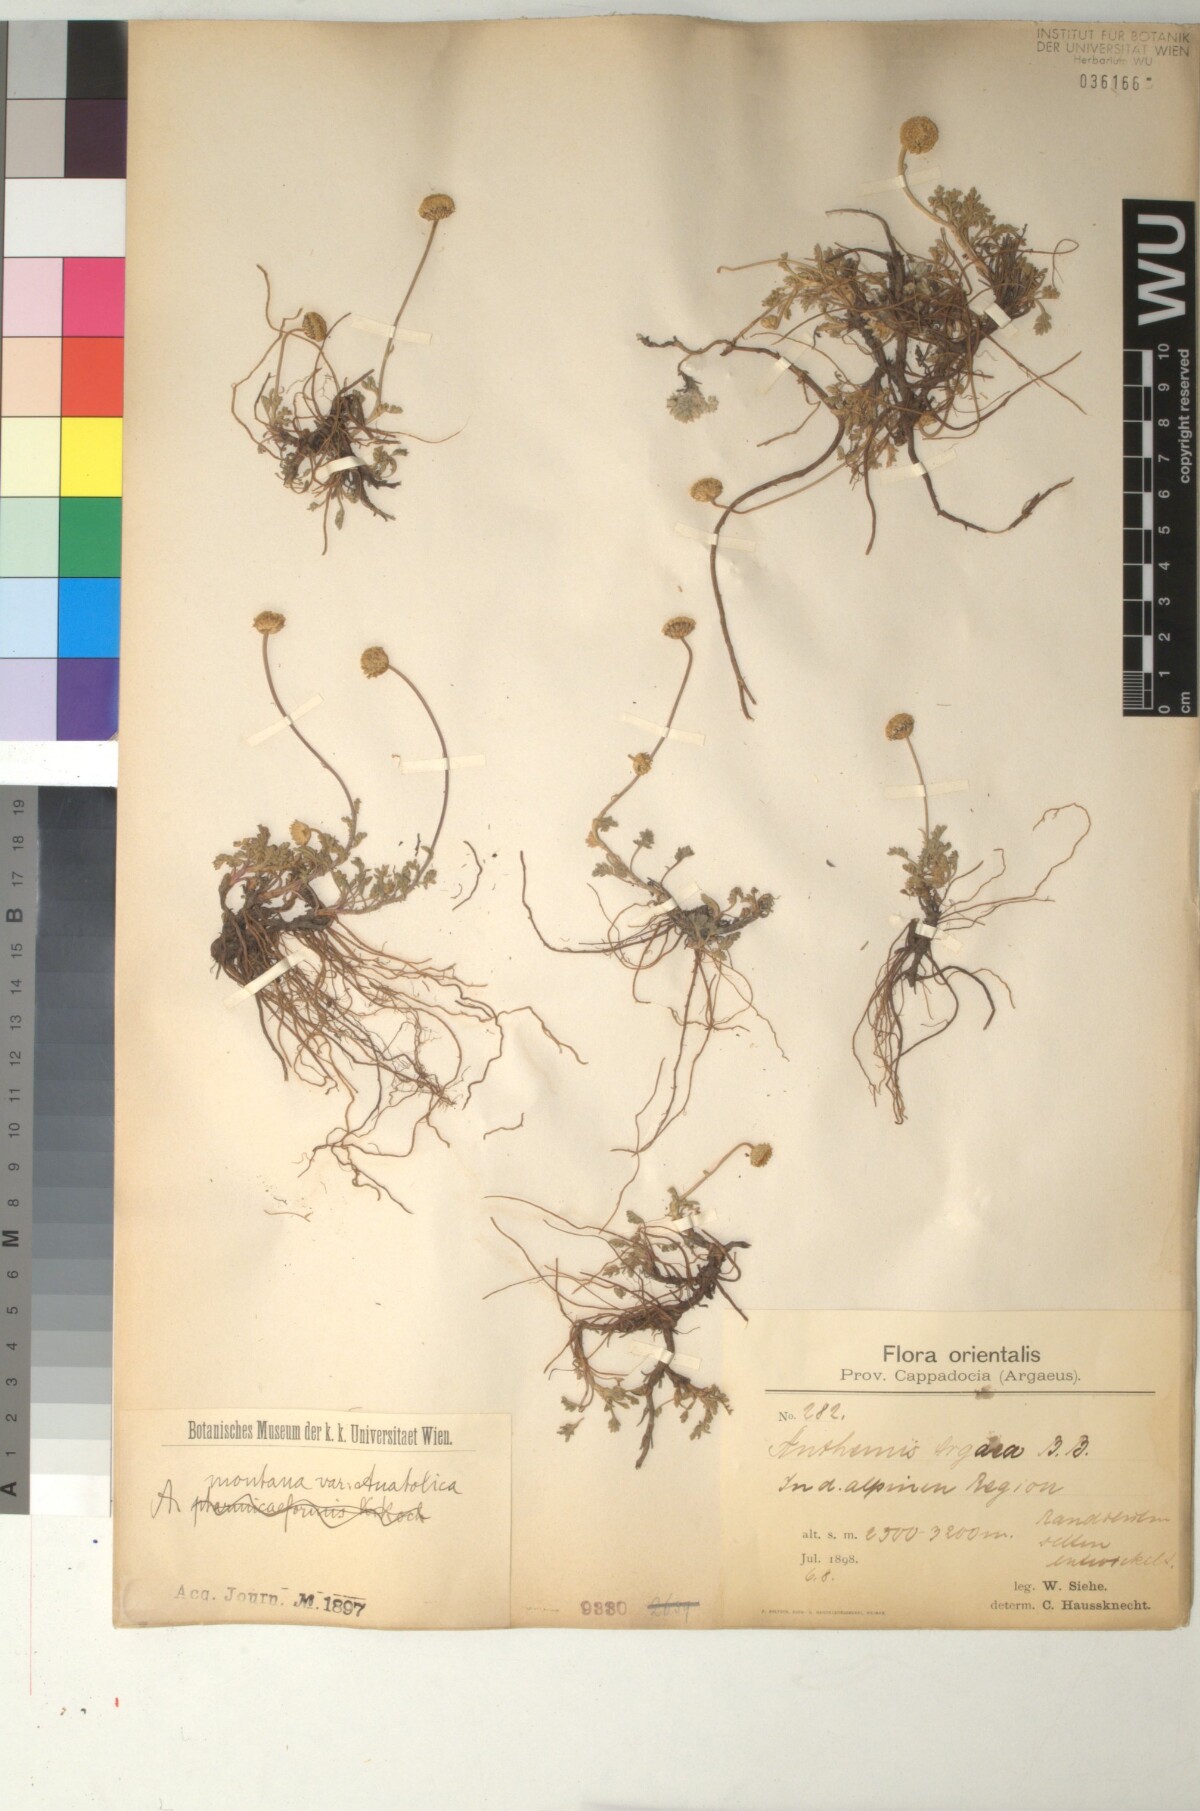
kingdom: Plantae
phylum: Tracheophyta
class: Magnoliopsida
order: Asterales
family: Asteraceae
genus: Anthemis
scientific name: Anthemis cretica
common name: Mountain dog-daisy
